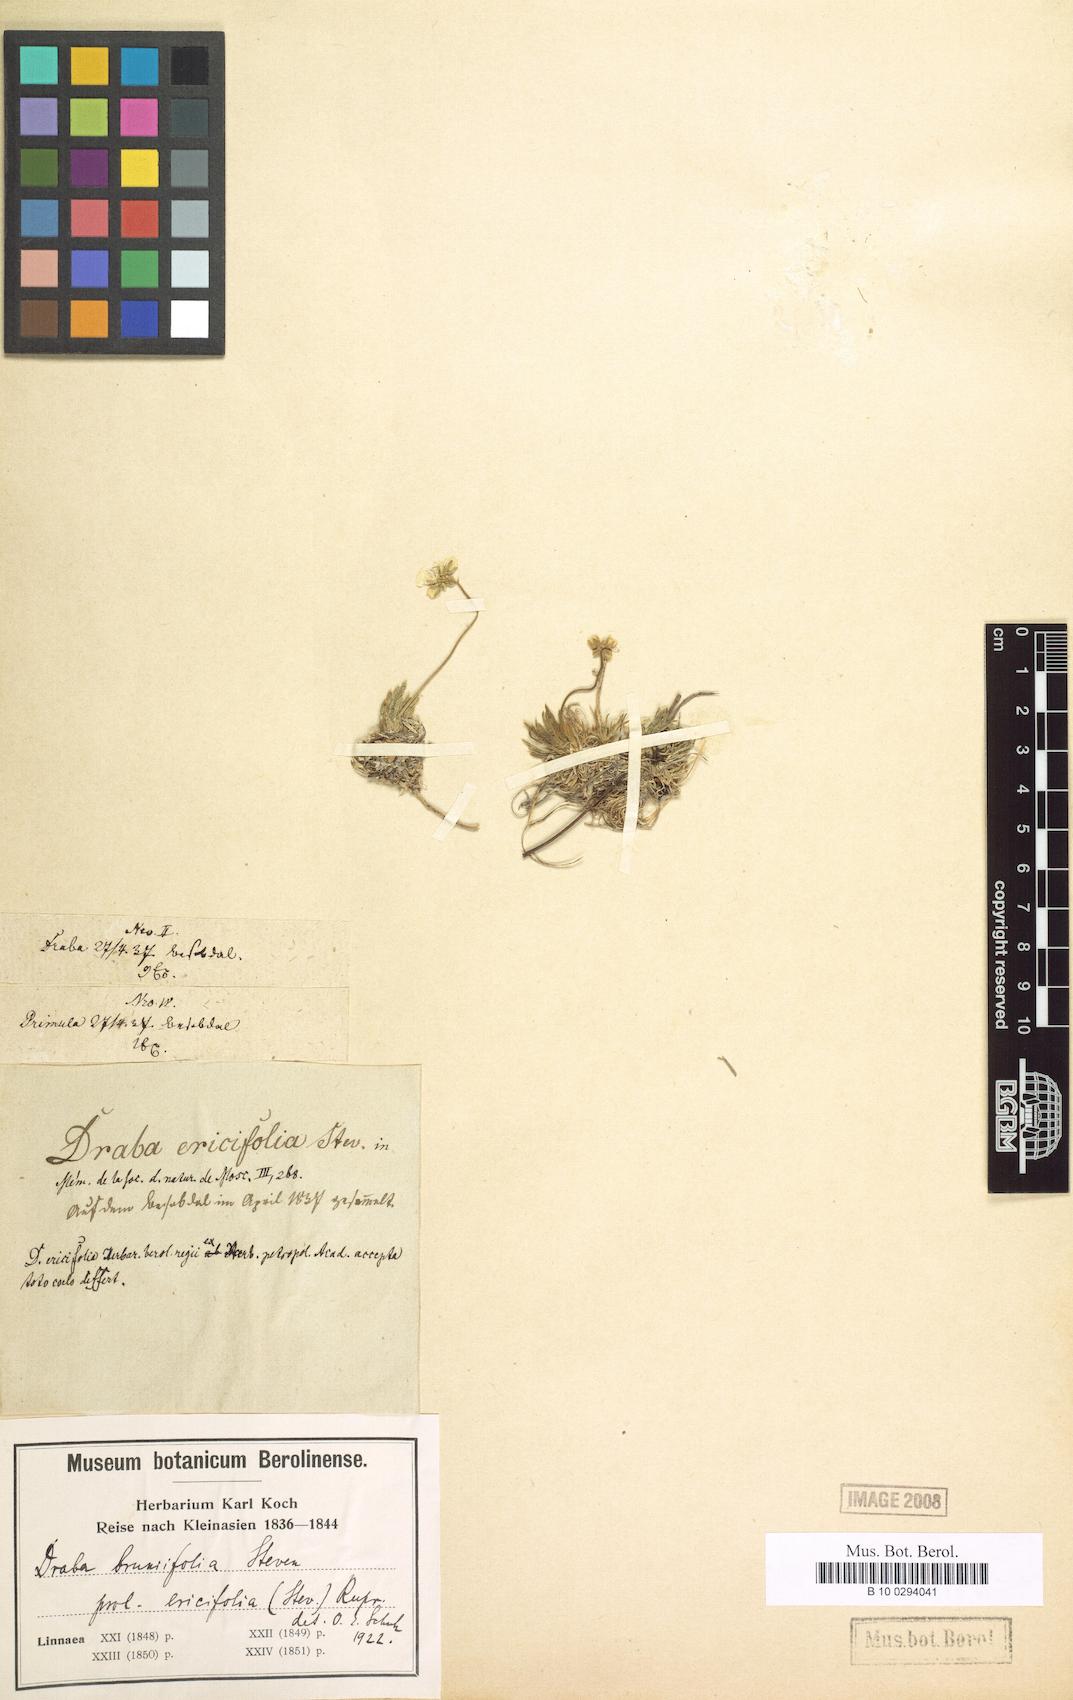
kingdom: Plantae
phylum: Tracheophyta
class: Magnoliopsida
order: Brassicales
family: Brassicaceae
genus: Draba
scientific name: Draba bruniifolia
